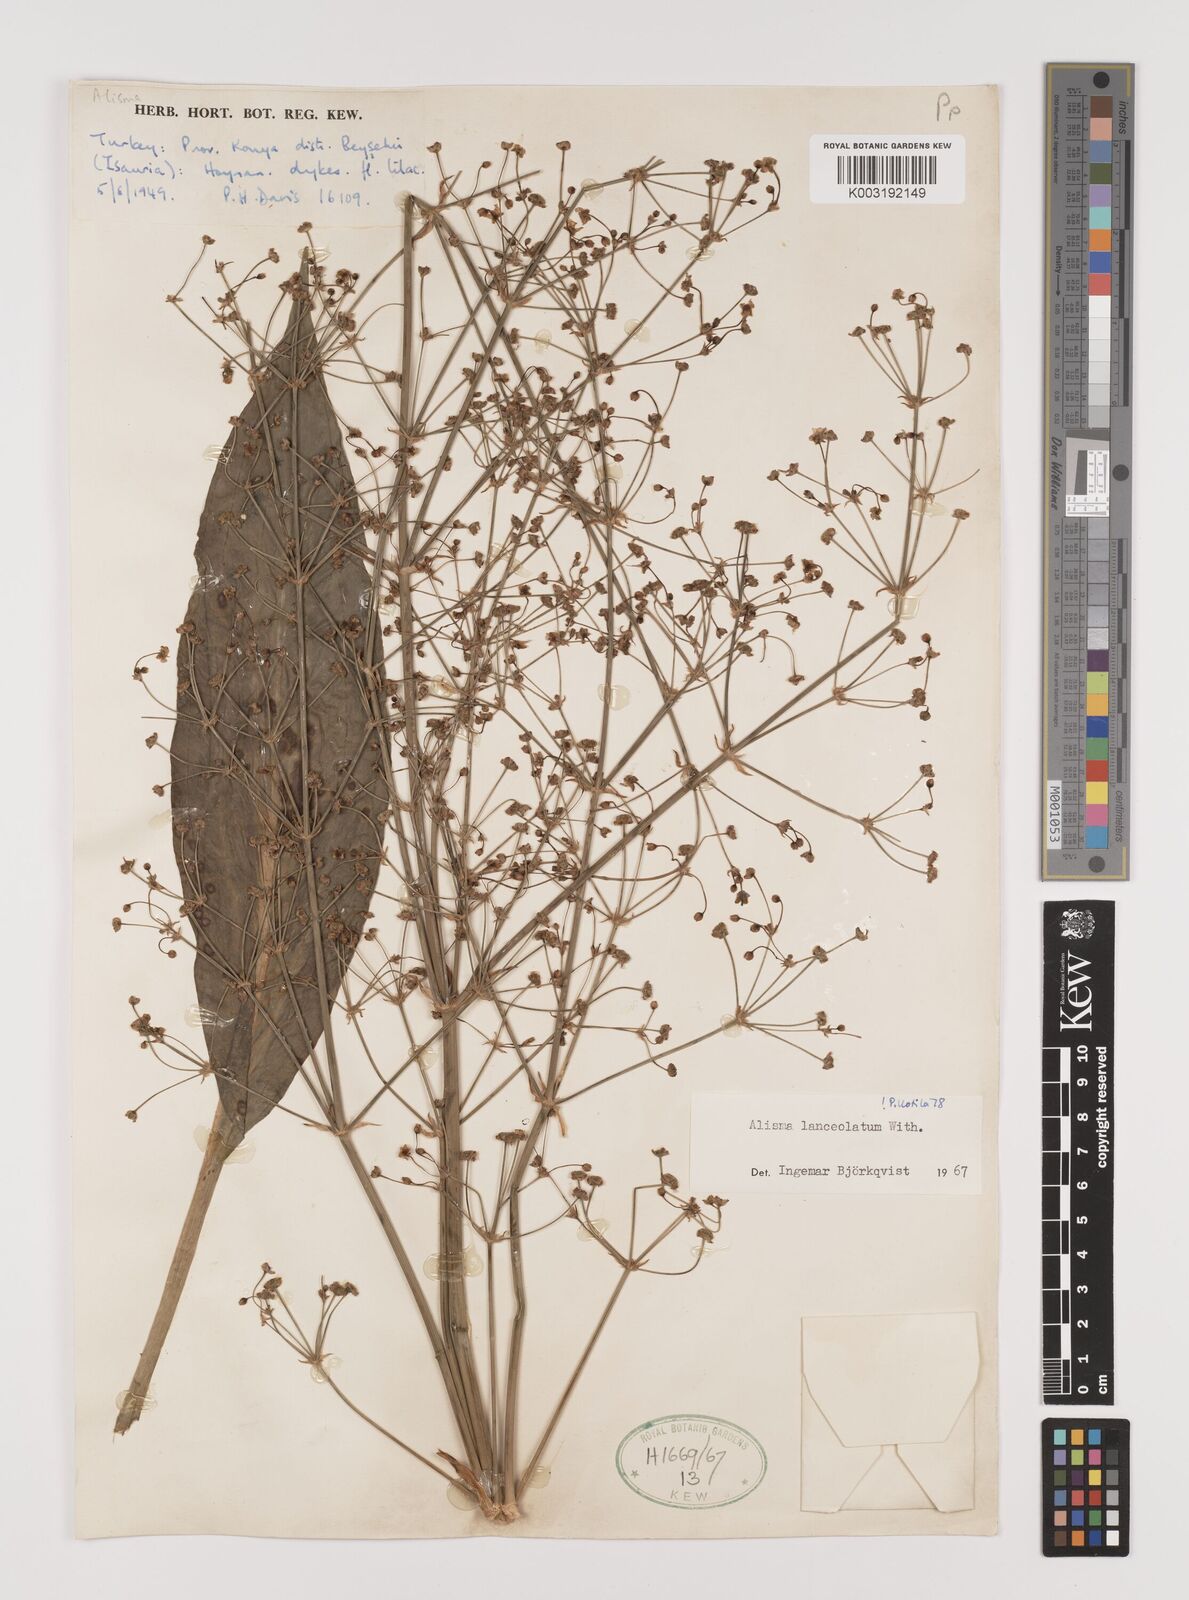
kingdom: Plantae
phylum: Tracheophyta
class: Liliopsida
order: Alismatales
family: Alismataceae
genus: Alisma
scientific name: Alisma lanceolatum
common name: Narrow-leaved water-plantain
